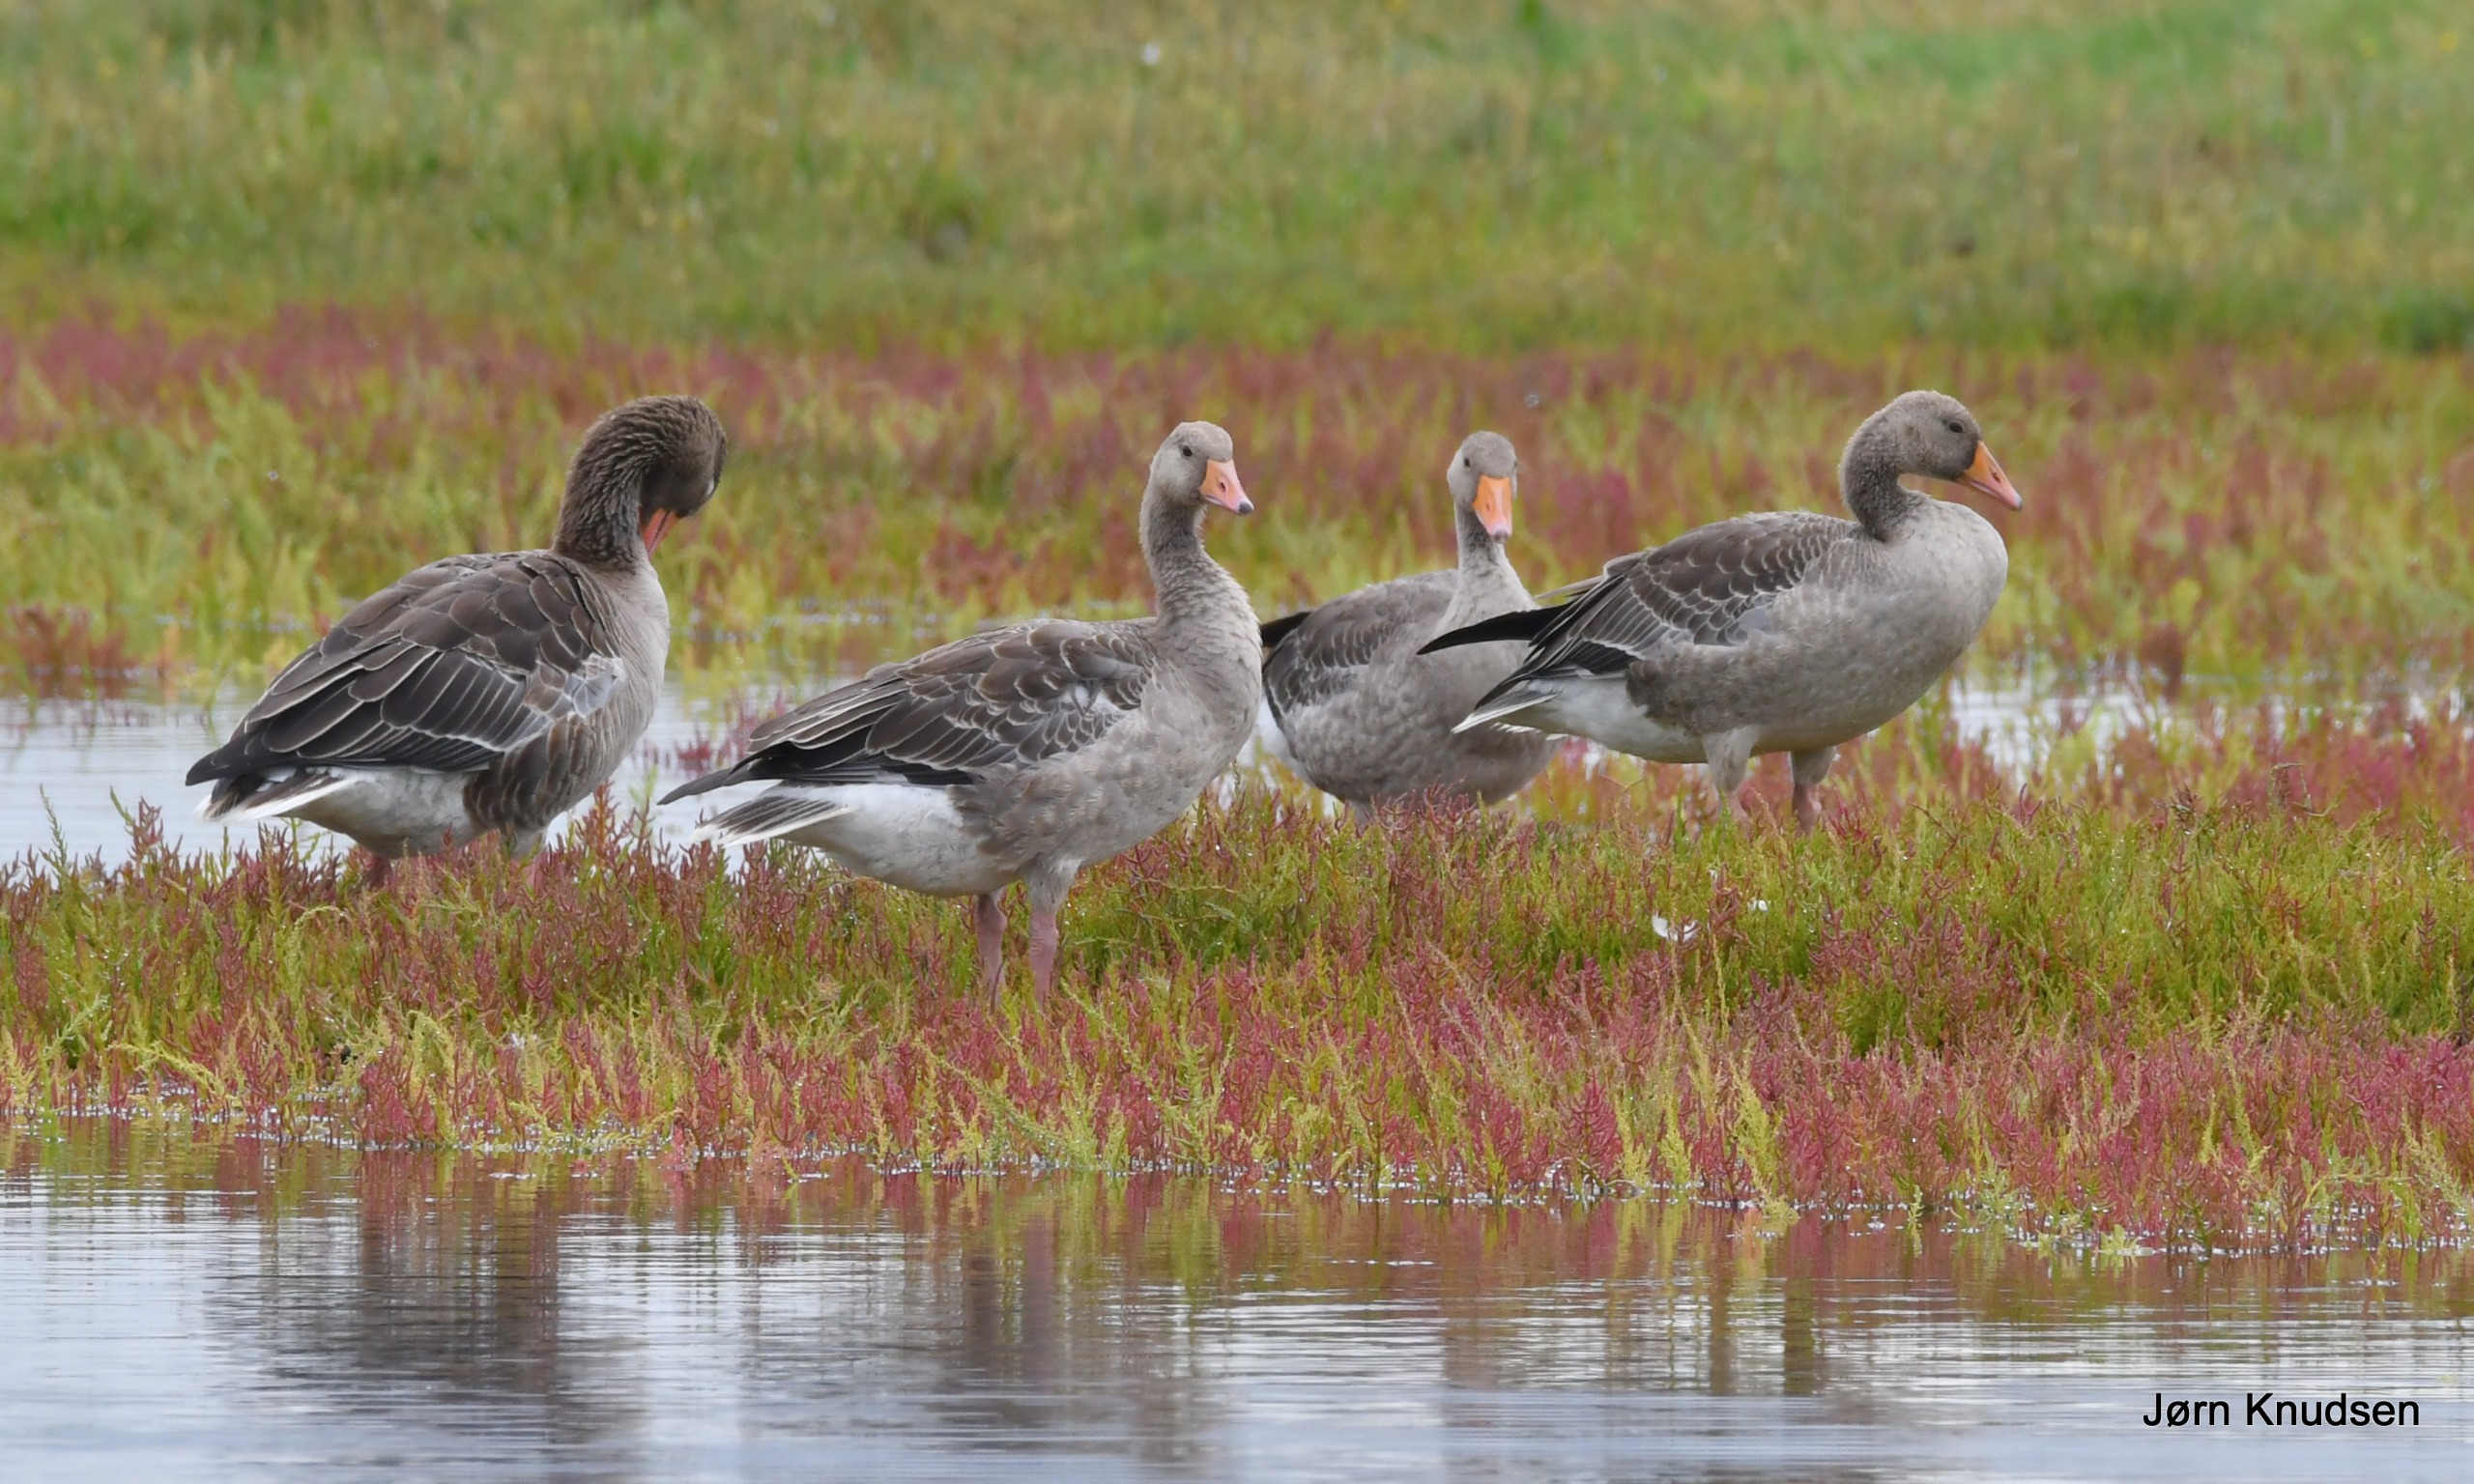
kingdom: Animalia
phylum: Chordata
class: Aves
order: Anseriformes
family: Anatidae
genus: Anser
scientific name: Anser anser
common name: Grågås
